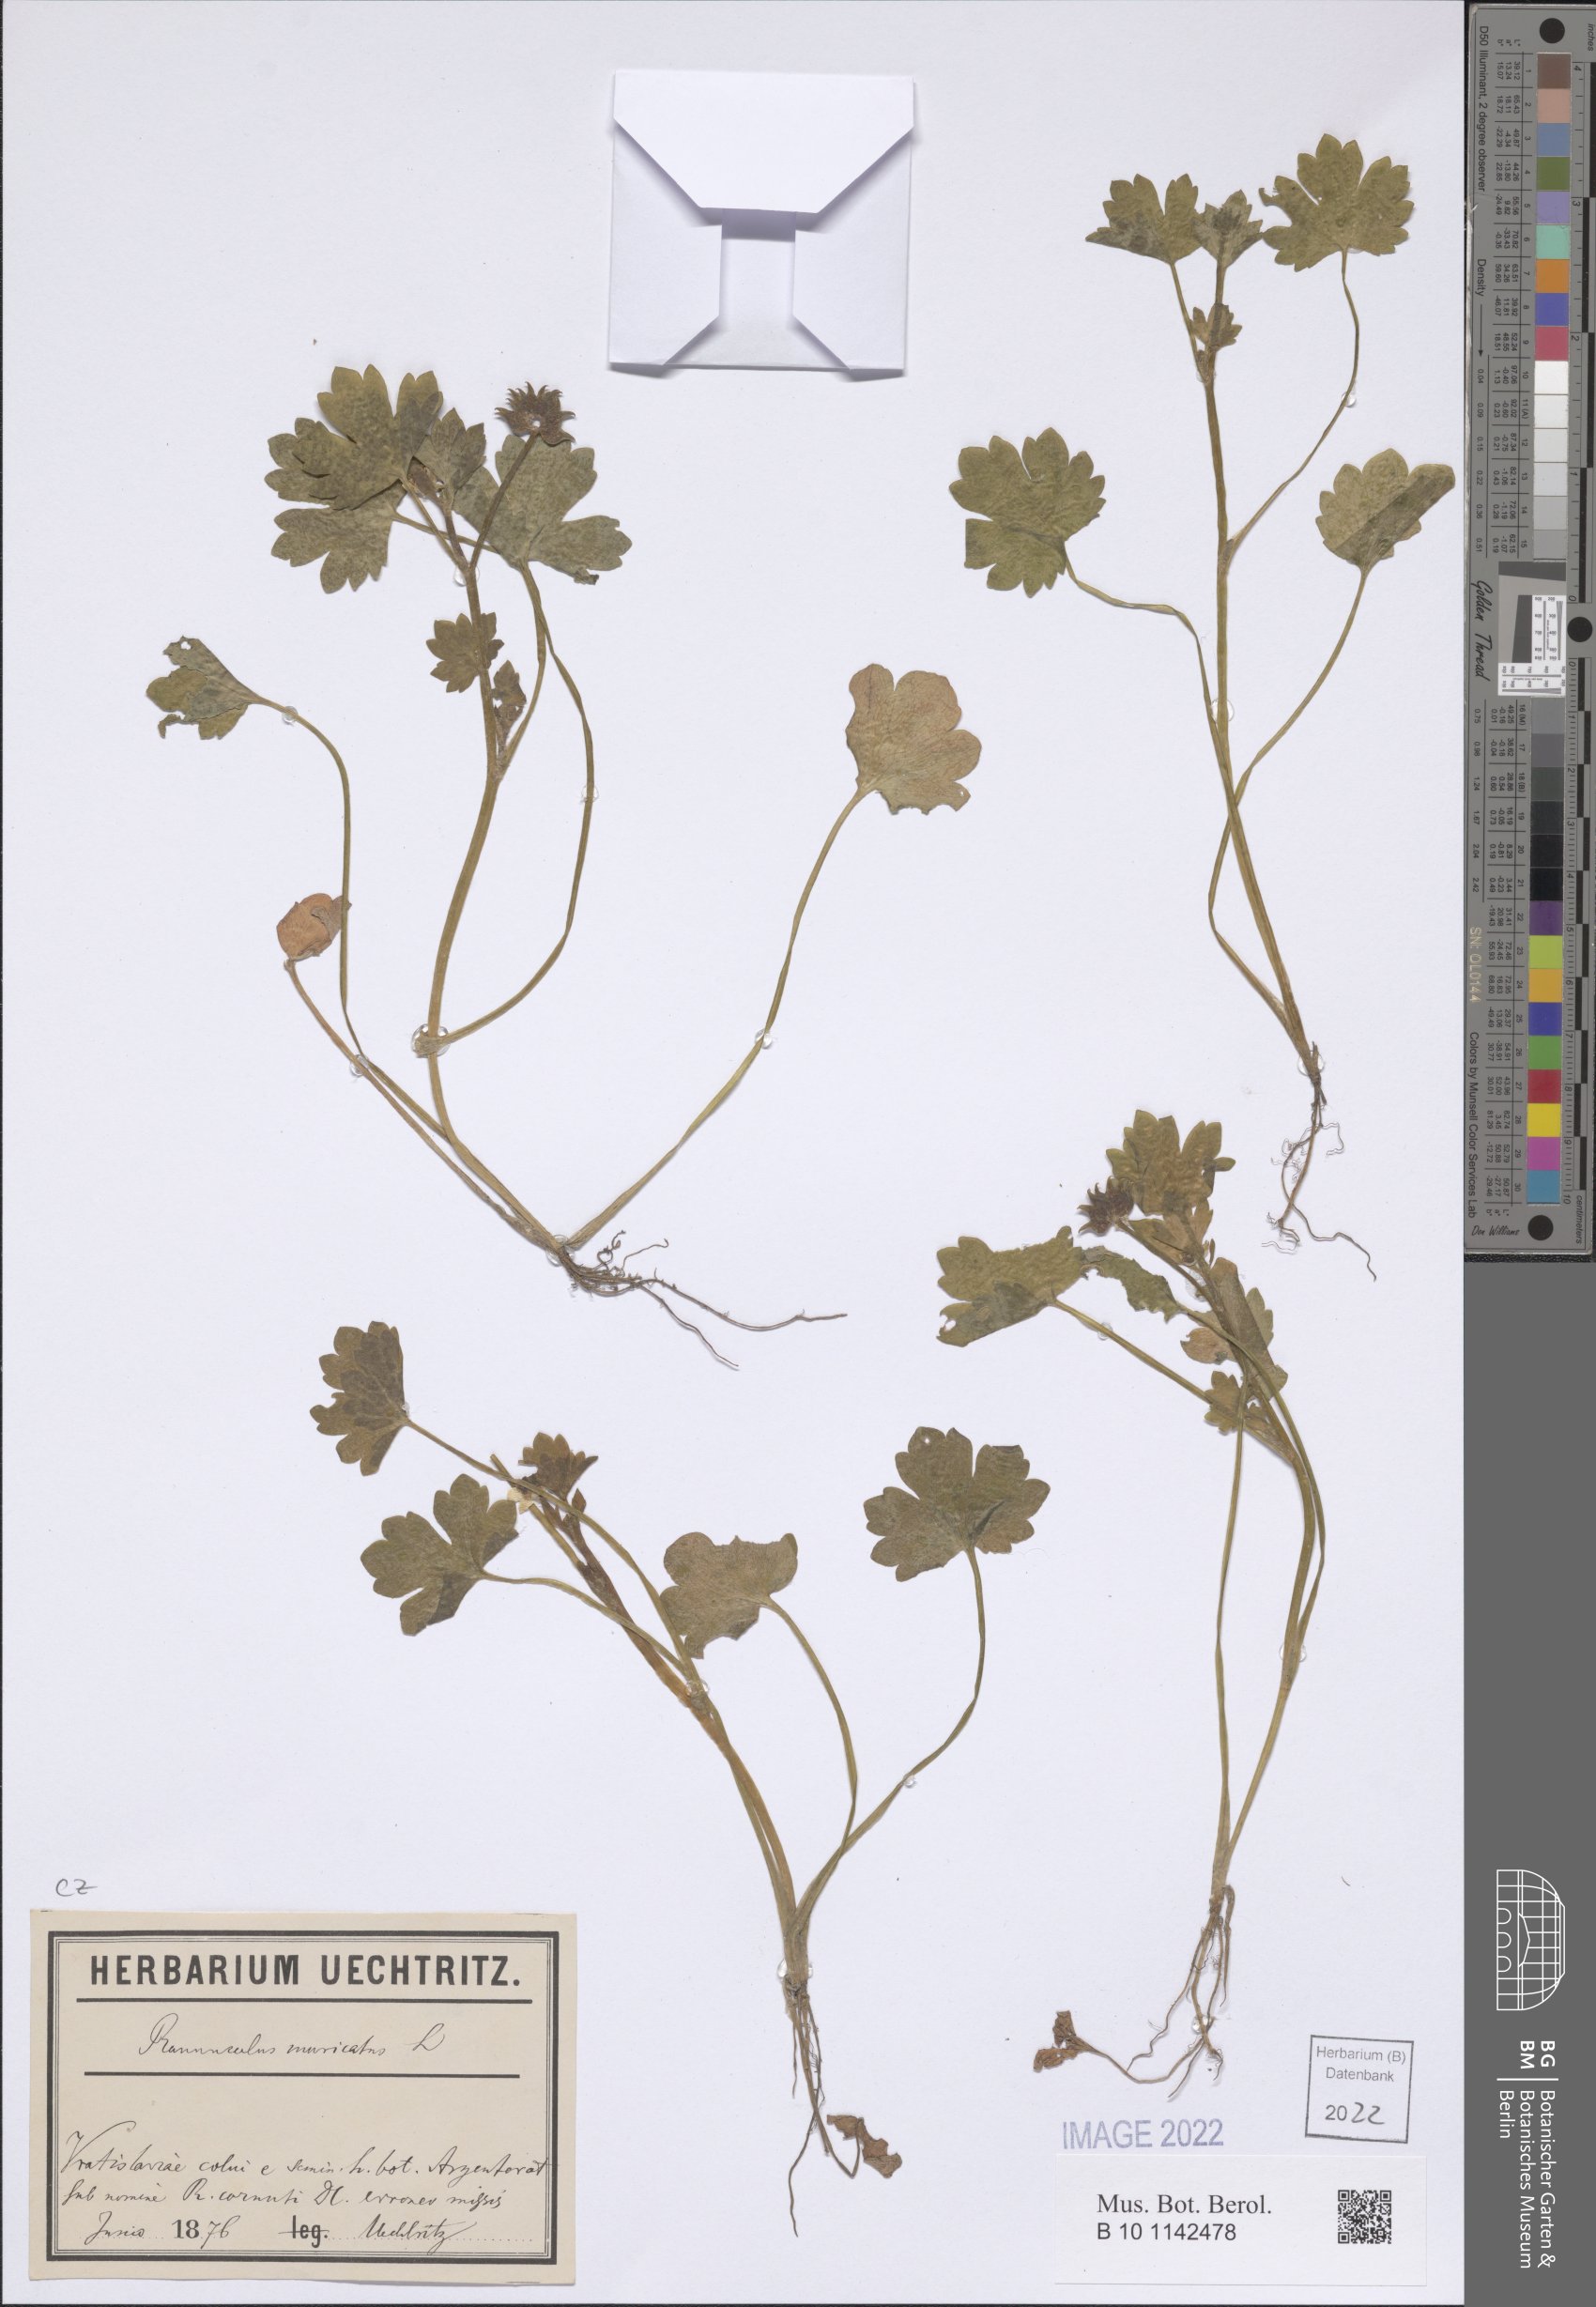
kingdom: Plantae
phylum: Tracheophyta
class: Magnoliopsida
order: Ranunculales
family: Ranunculaceae
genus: Ranunculus
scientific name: Ranunculus muricatus
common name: Rough-fruited buttercup
